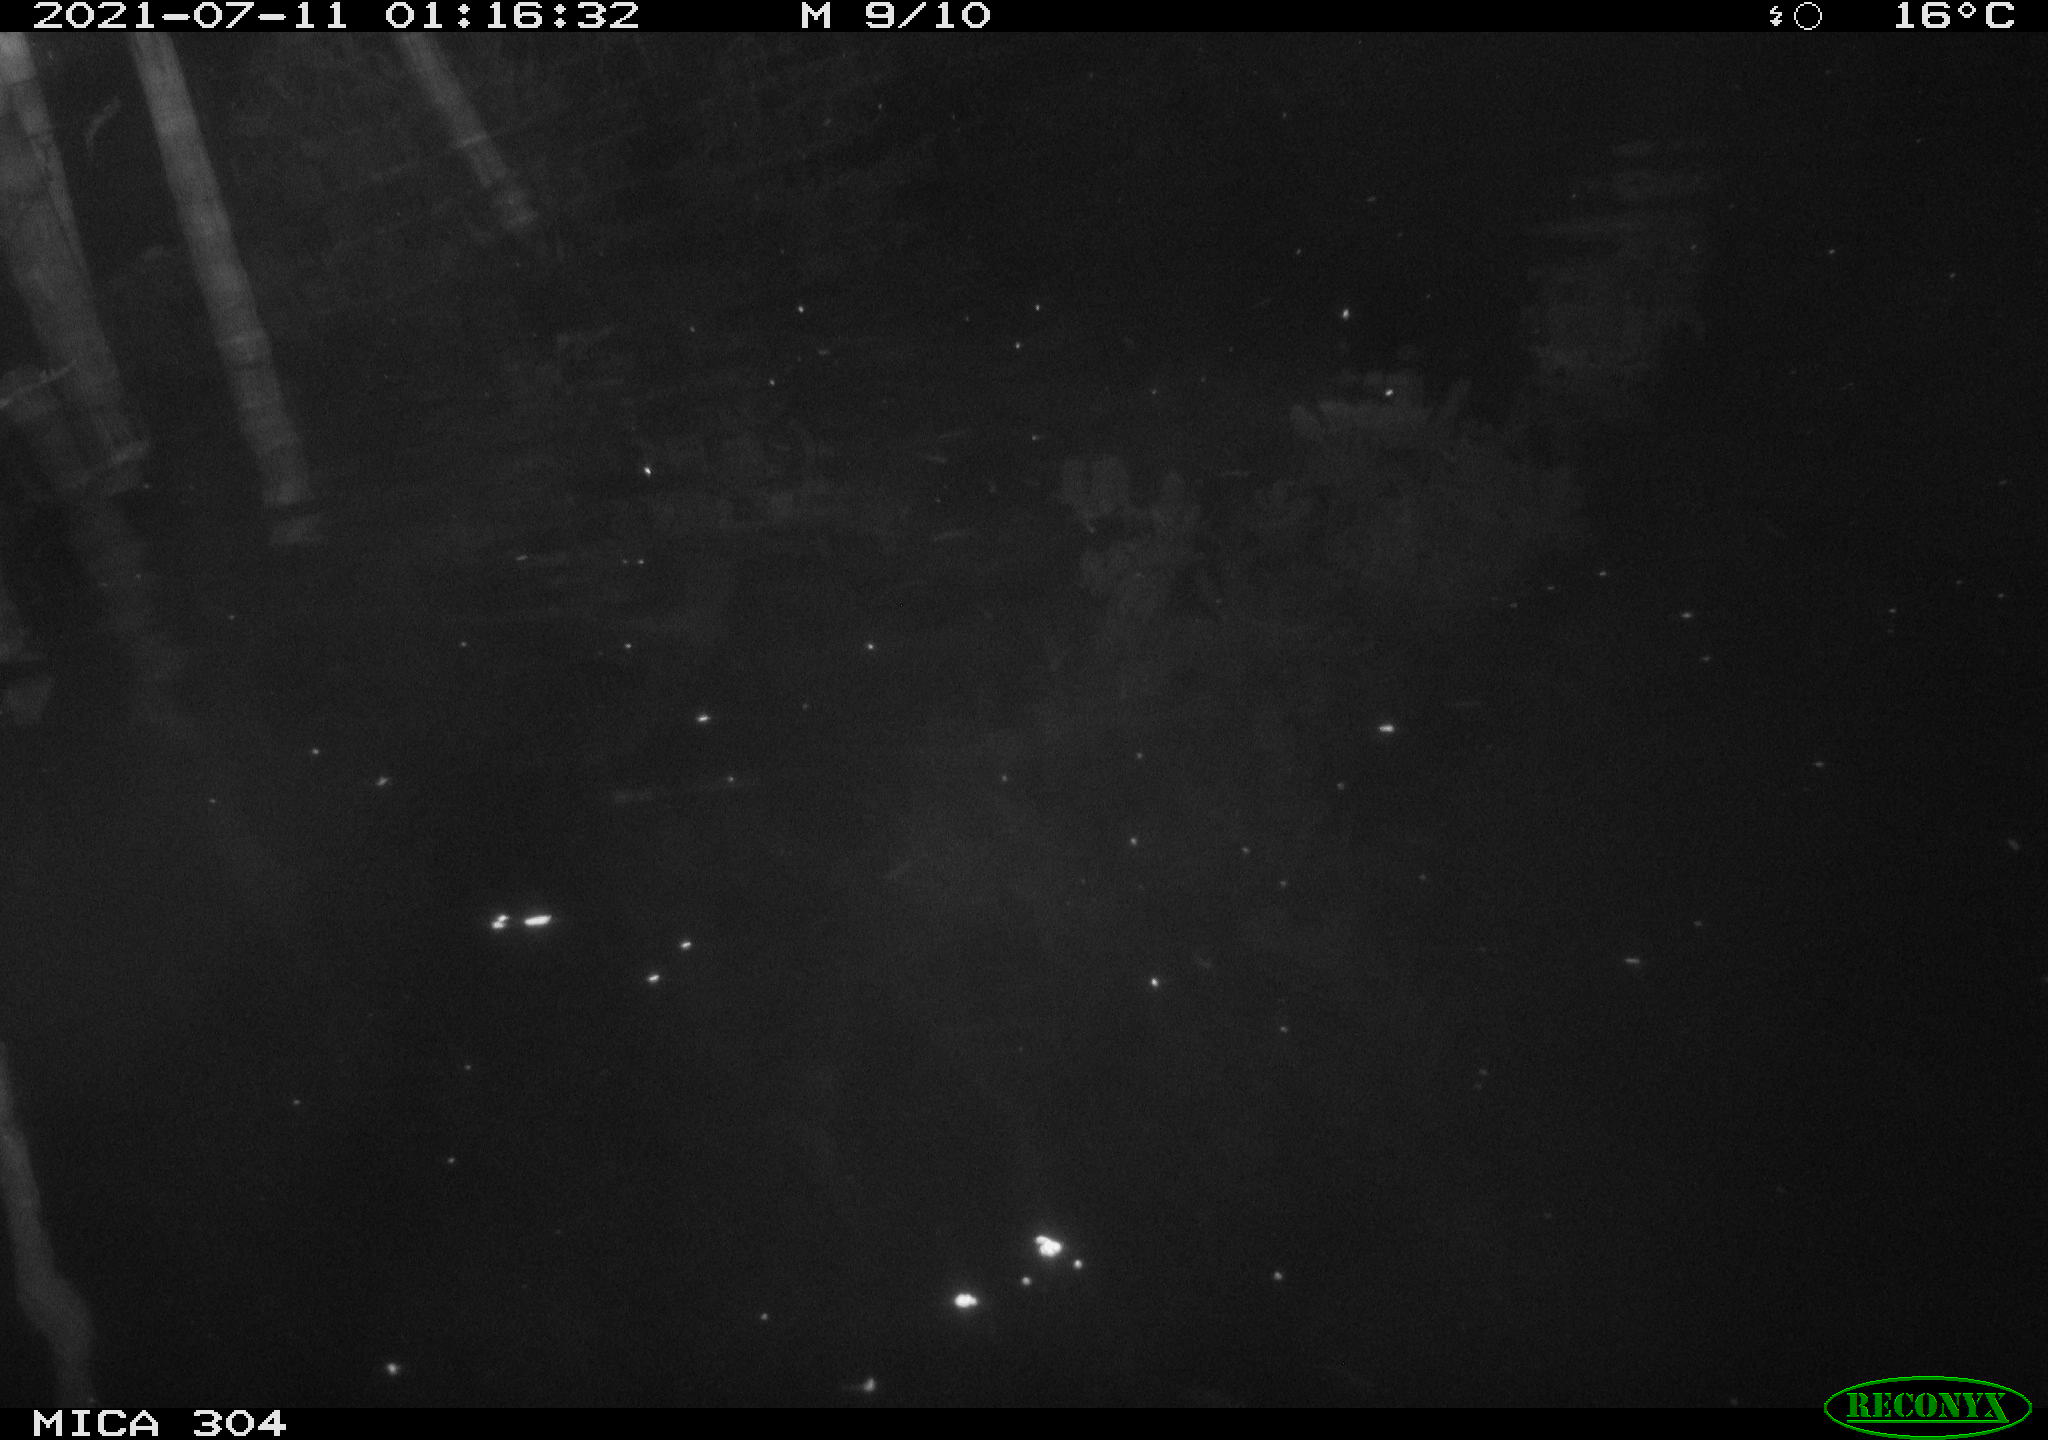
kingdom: Animalia
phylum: Chordata
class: Mammalia
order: Rodentia
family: Muridae
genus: Rattus
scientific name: Rattus norvegicus
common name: Brown rat
